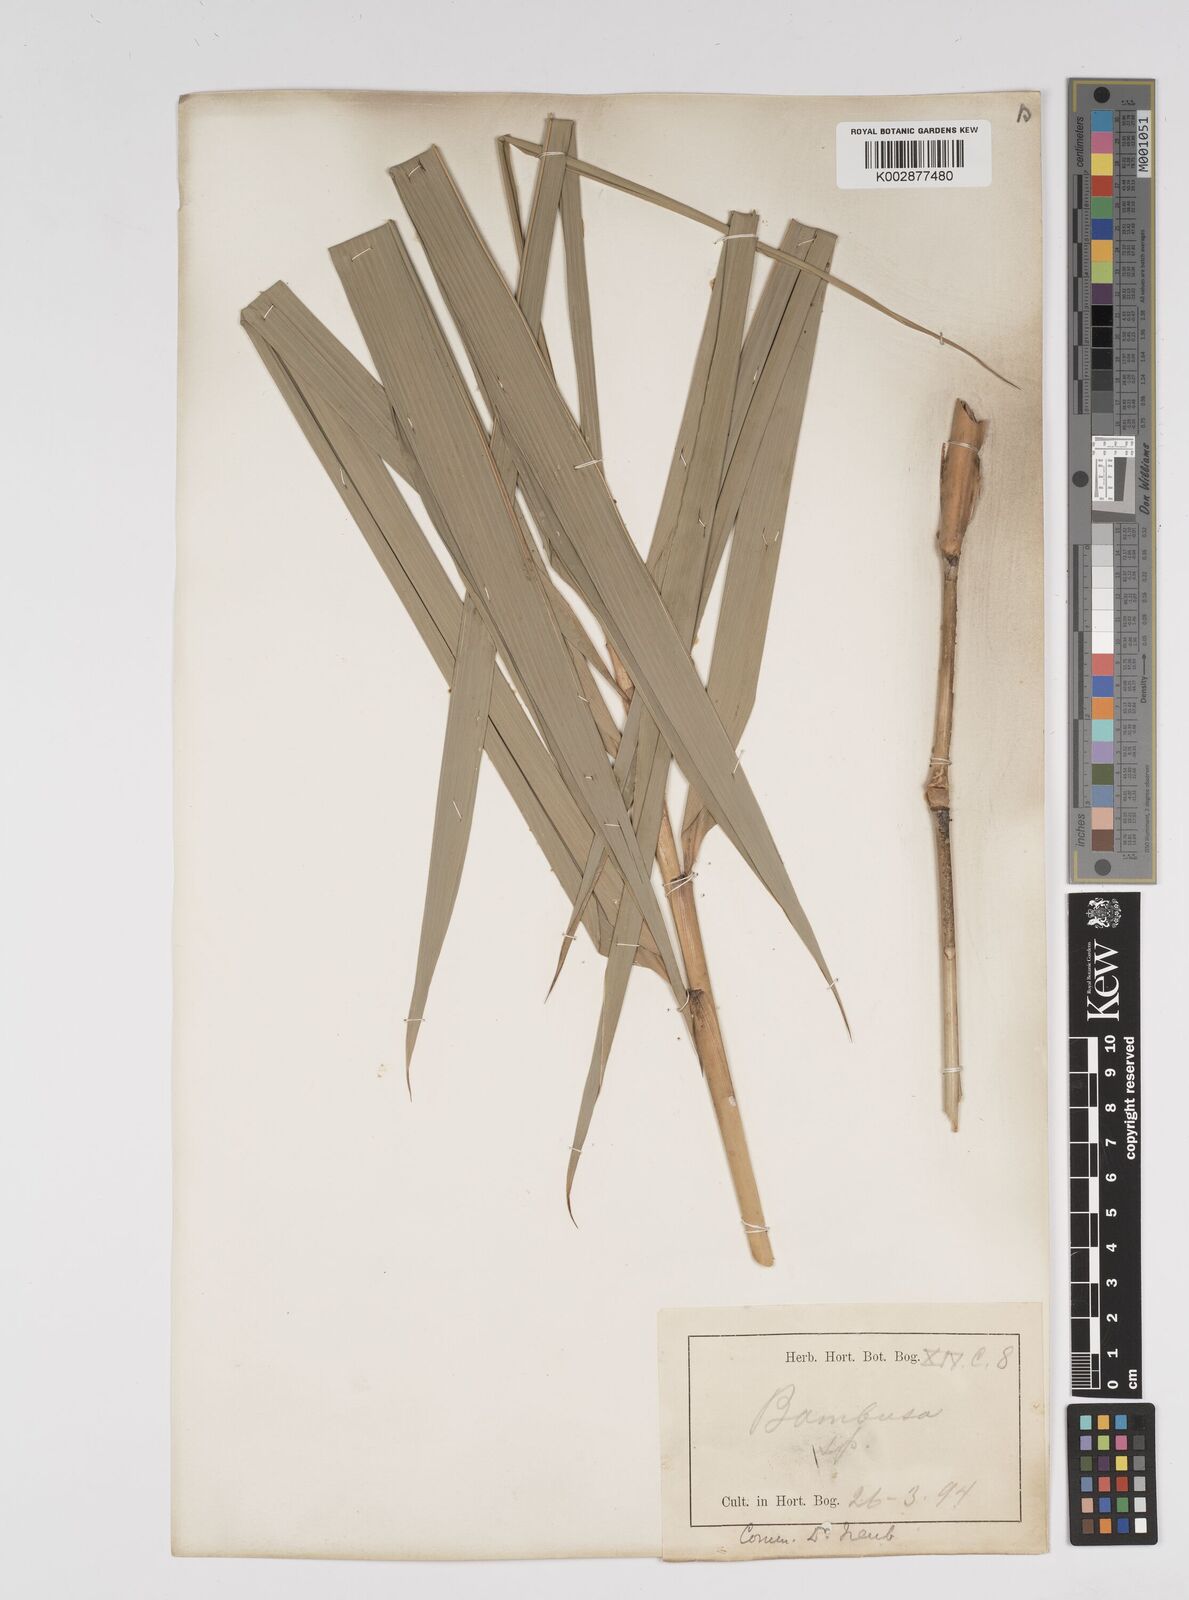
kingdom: Plantae
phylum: Tracheophyta
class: Liliopsida
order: Poales
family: Poaceae
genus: Bambusa
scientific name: Bambusa
